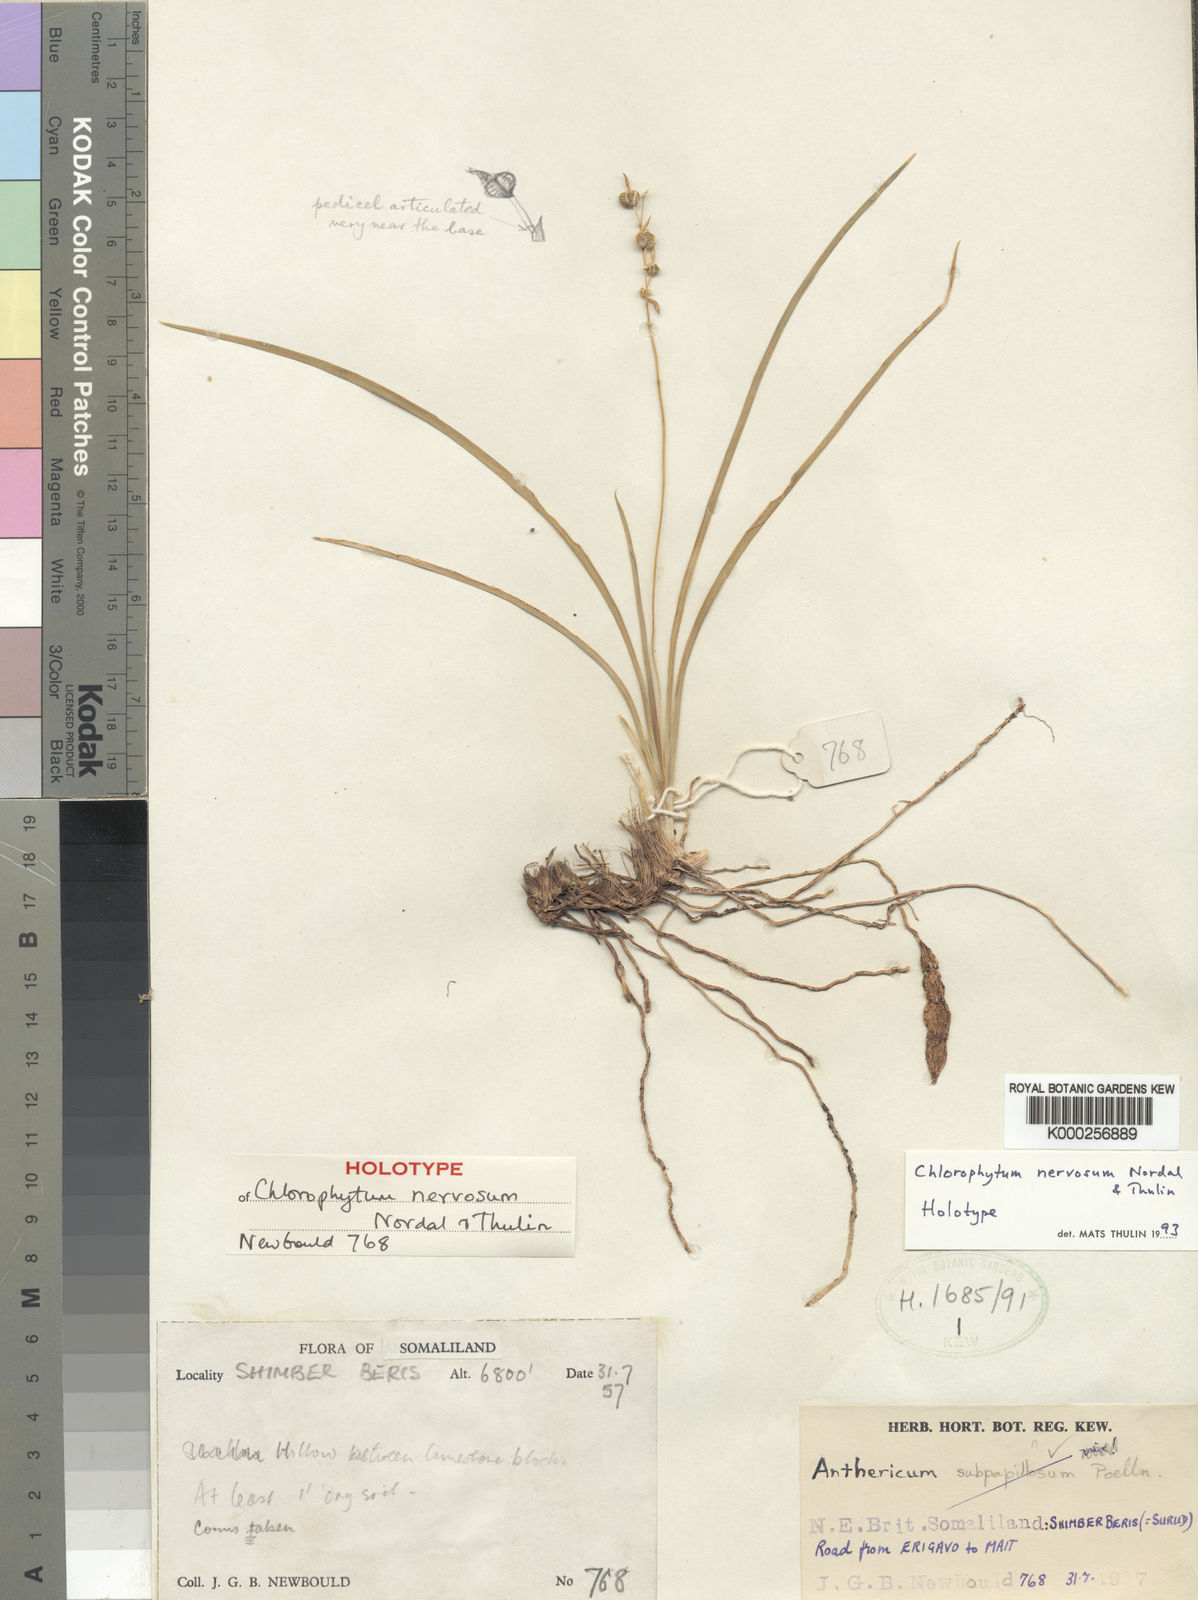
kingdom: Plantae
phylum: Tracheophyta
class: Liliopsida
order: Asparagales
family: Asparagaceae
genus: Chlorophytum
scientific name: Chlorophytum nervosum
